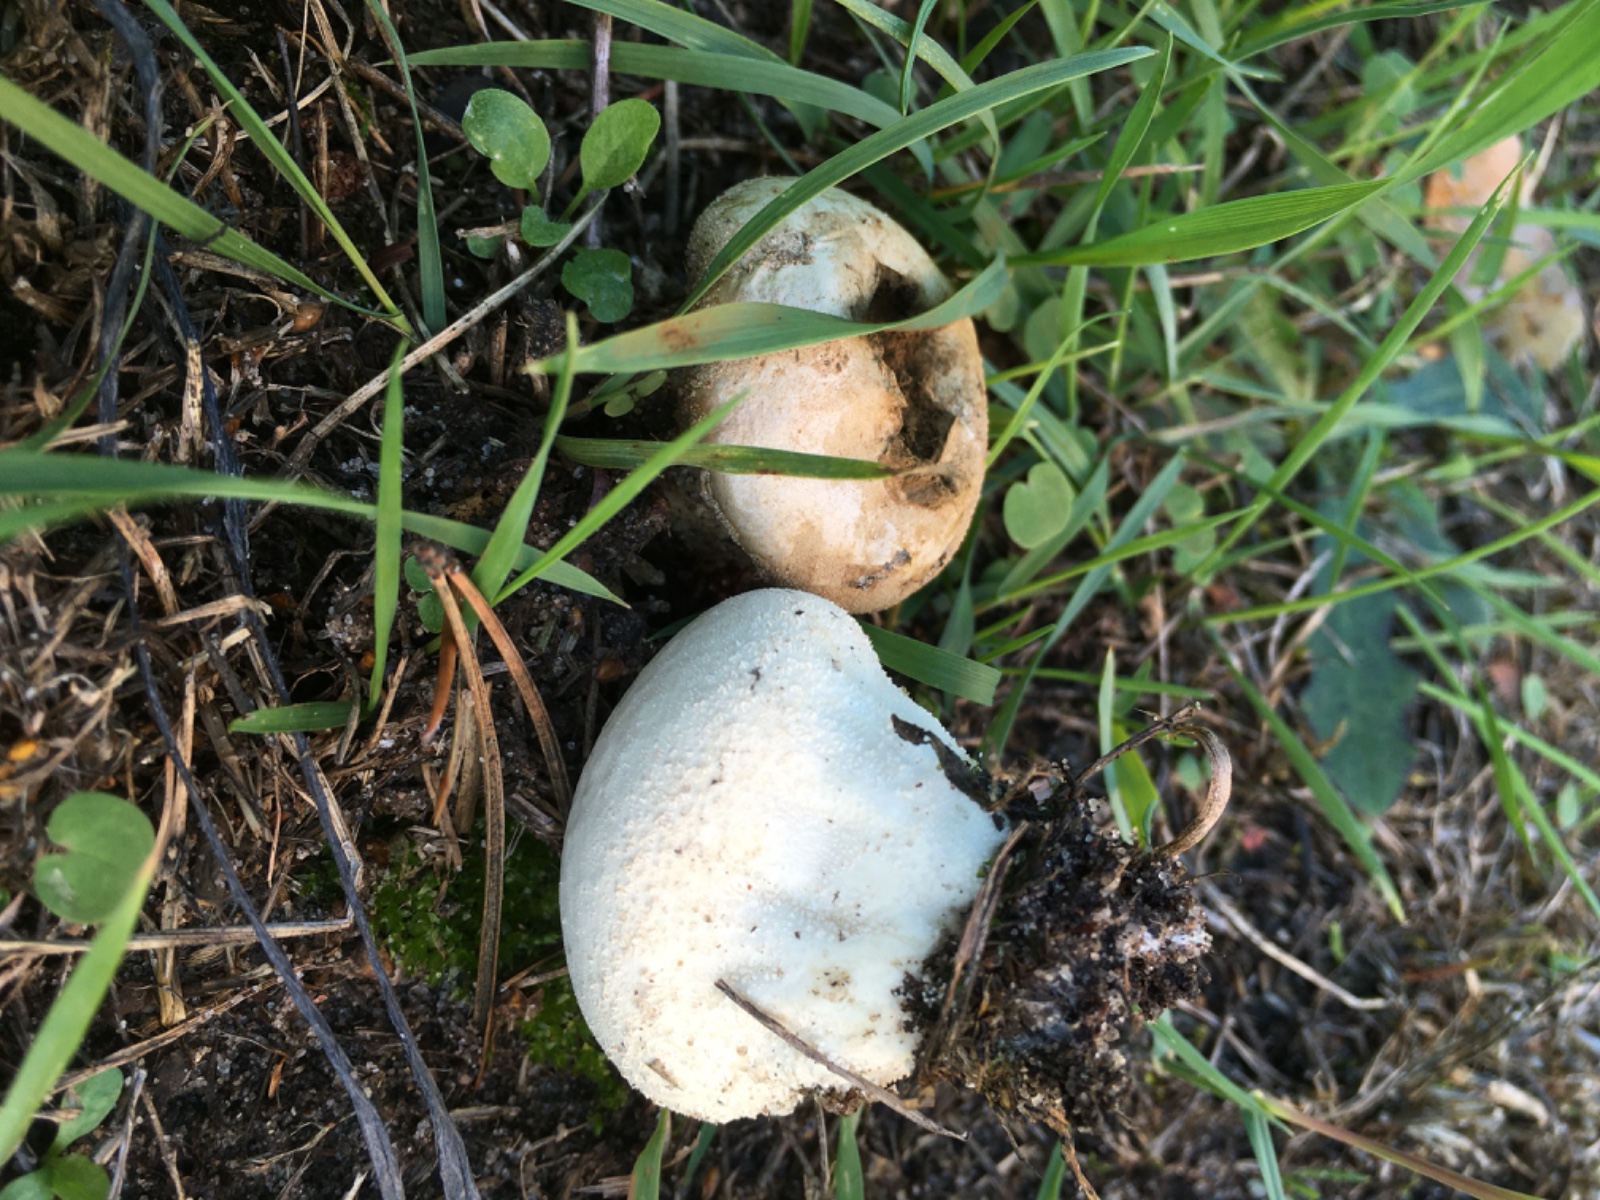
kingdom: Fungi
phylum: Basidiomycota
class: Agaricomycetes
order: Agaricales
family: Lycoperdaceae
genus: Lycoperdon
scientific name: Lycoperdon pratense
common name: flad støvbold
